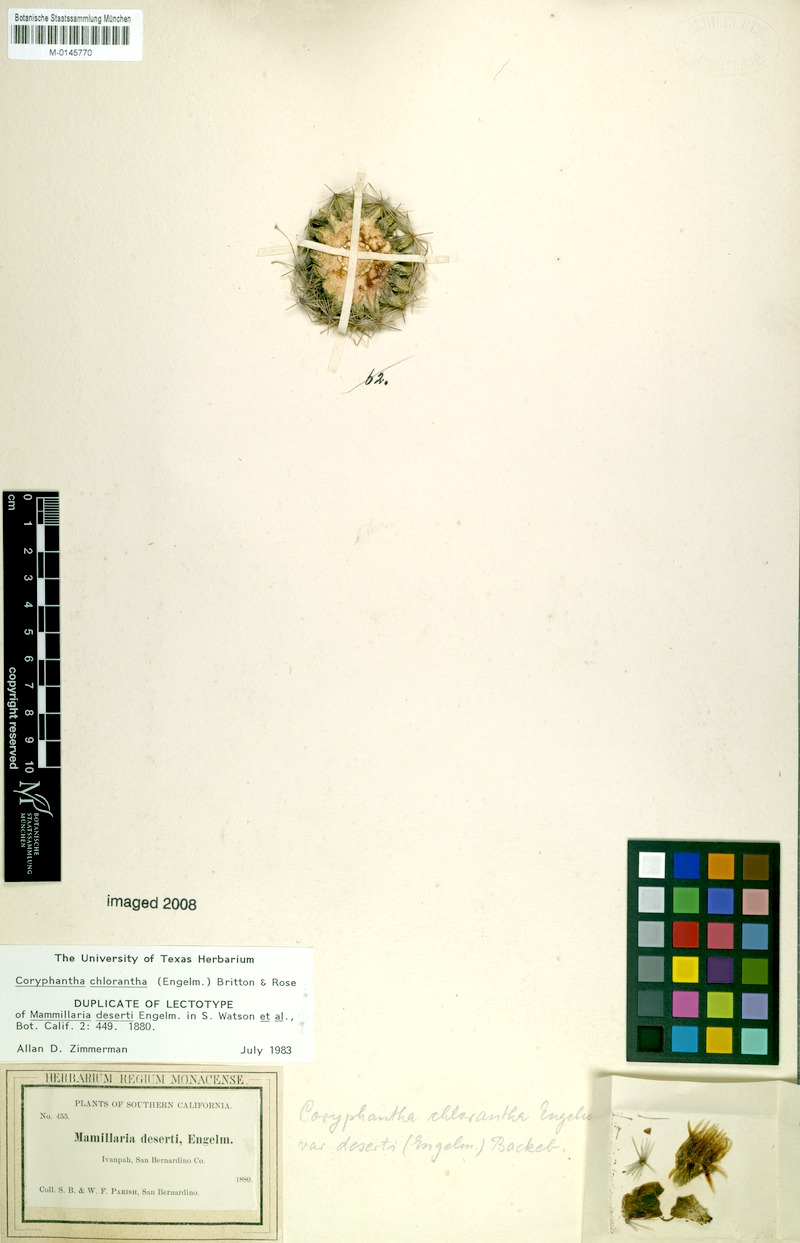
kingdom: Plantae
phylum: Tracheophyta
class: Magnoliopsida
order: Caryophyllales
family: Cactaceae
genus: Pelecyphora
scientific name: Pelecyphora dasyacantha
